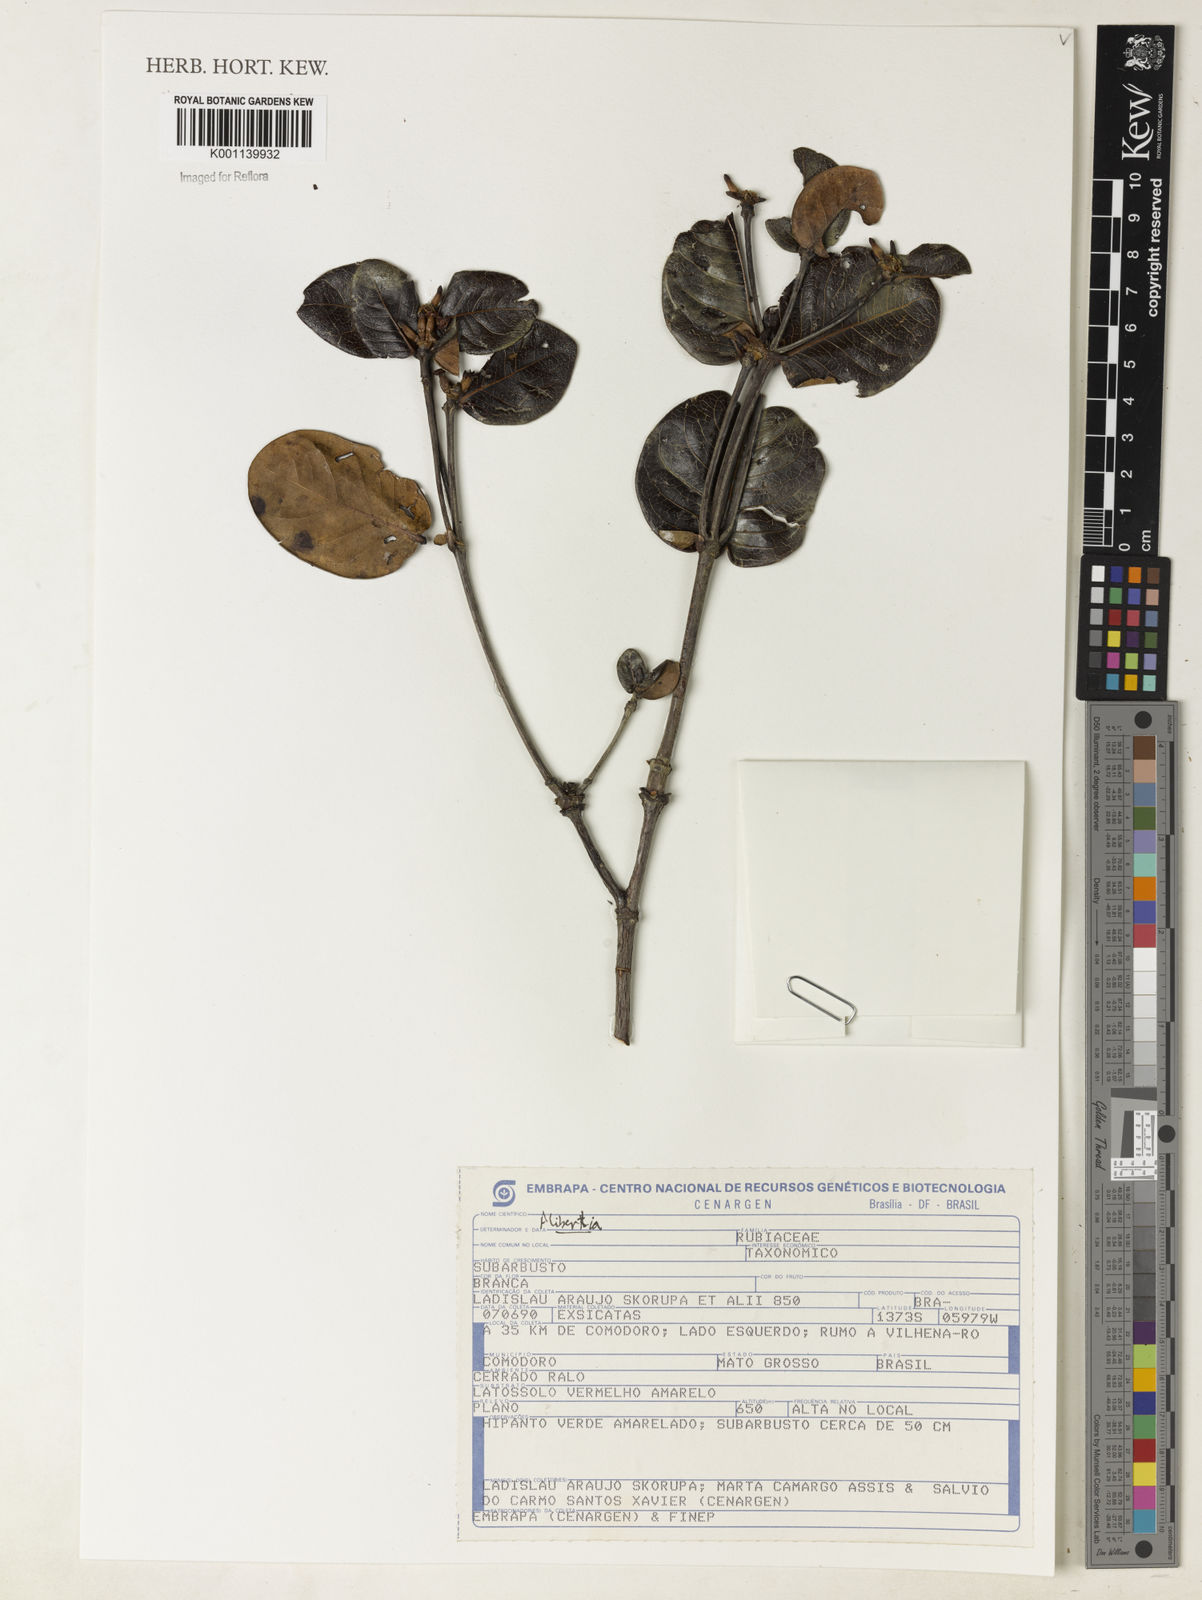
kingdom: Plantae
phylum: Tracheophyta
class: Magnoliopsida
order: Gentianales
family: Rubiaceae
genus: Alibertia
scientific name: Alibertia
